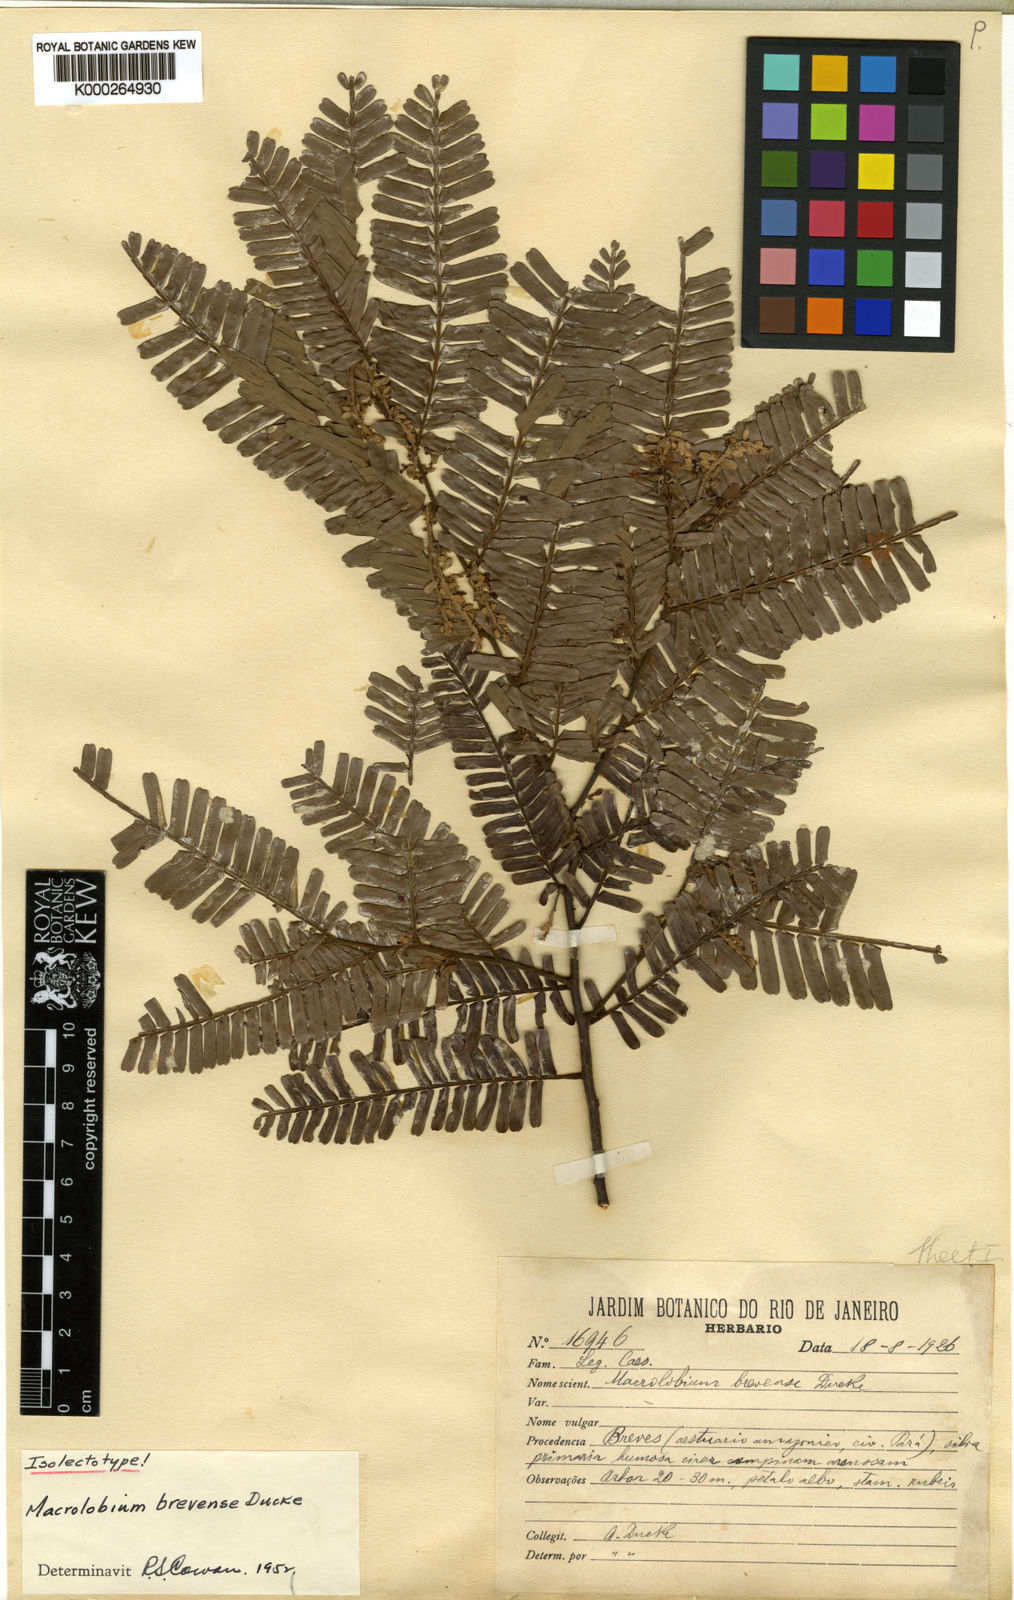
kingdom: Plantae
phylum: Tracheophyta
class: Magnoliopsida
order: Fabales
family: Fabaceae
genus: Macrolobium
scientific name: Macrolobium brevense
